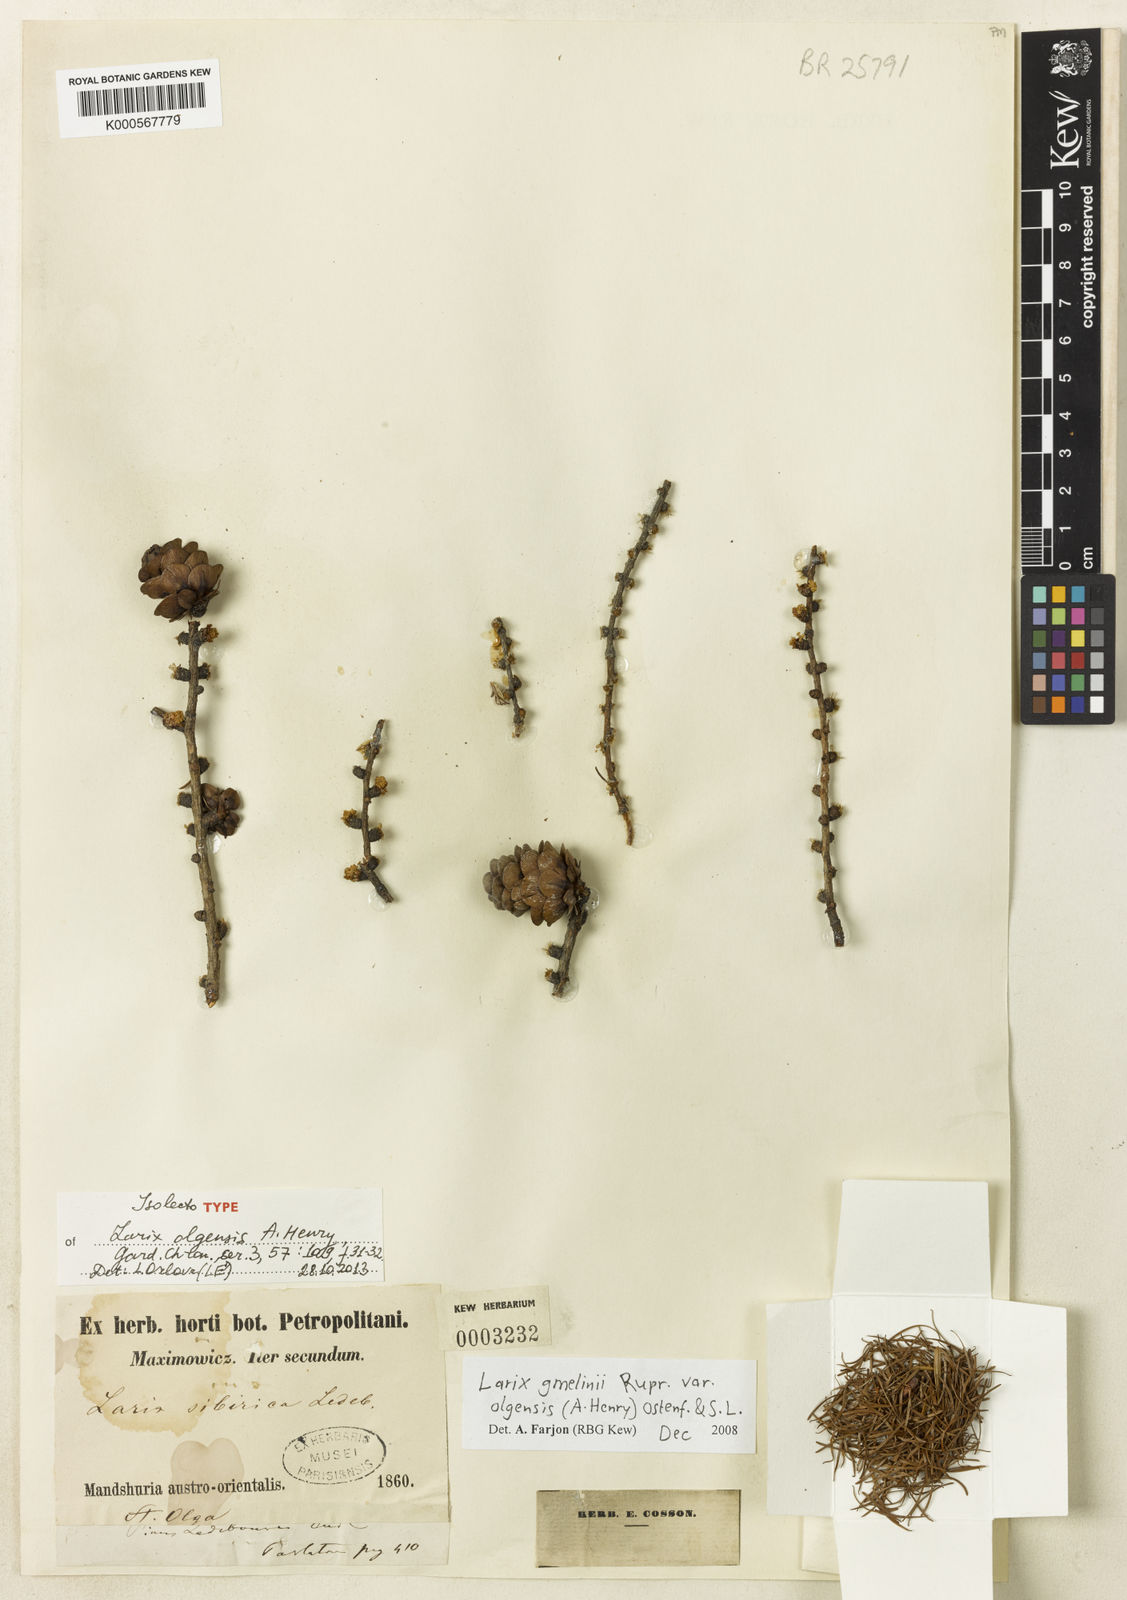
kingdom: Plantae
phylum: Tracheophyta
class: Pinopsida
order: Pinales
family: Pinaceae
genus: Larix
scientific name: Larix gmelinii
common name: Dahurian larch
